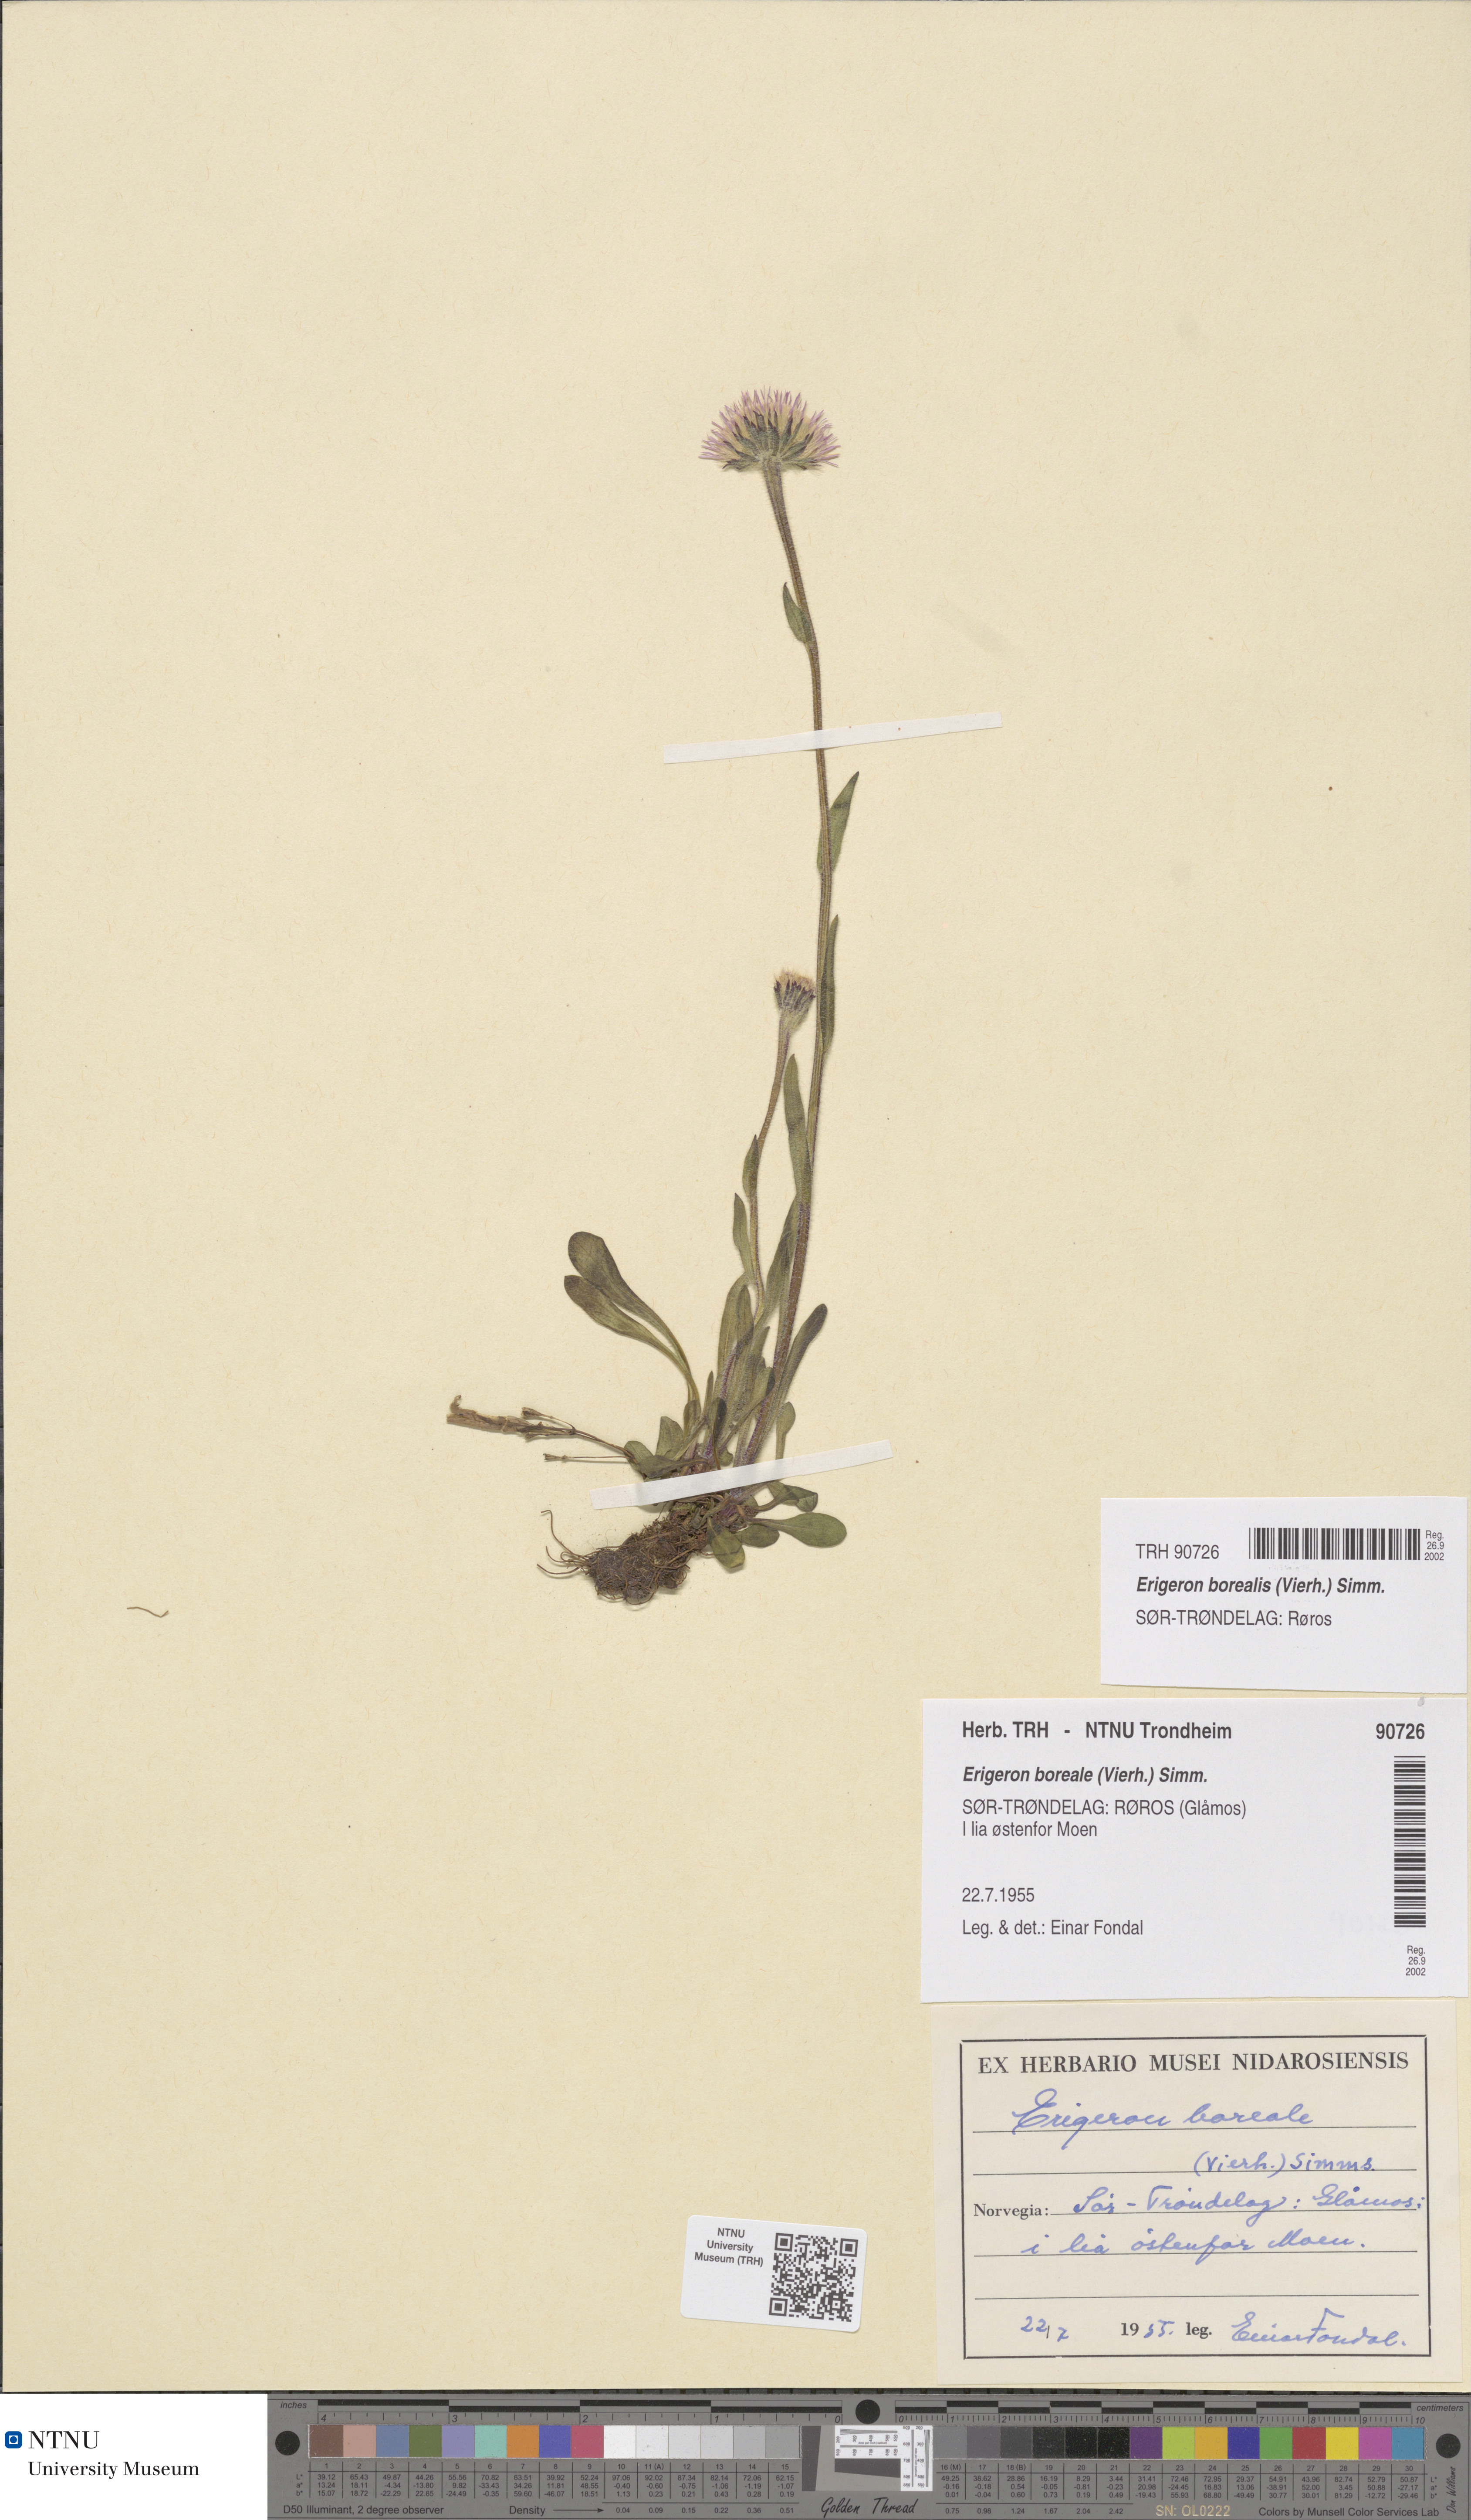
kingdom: Plantae
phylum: Tracheophyta
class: Magnoliopsida
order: Asterales
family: Asteraceae
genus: Erigeron
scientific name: Erigeron borealis
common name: Alpine fleabane
